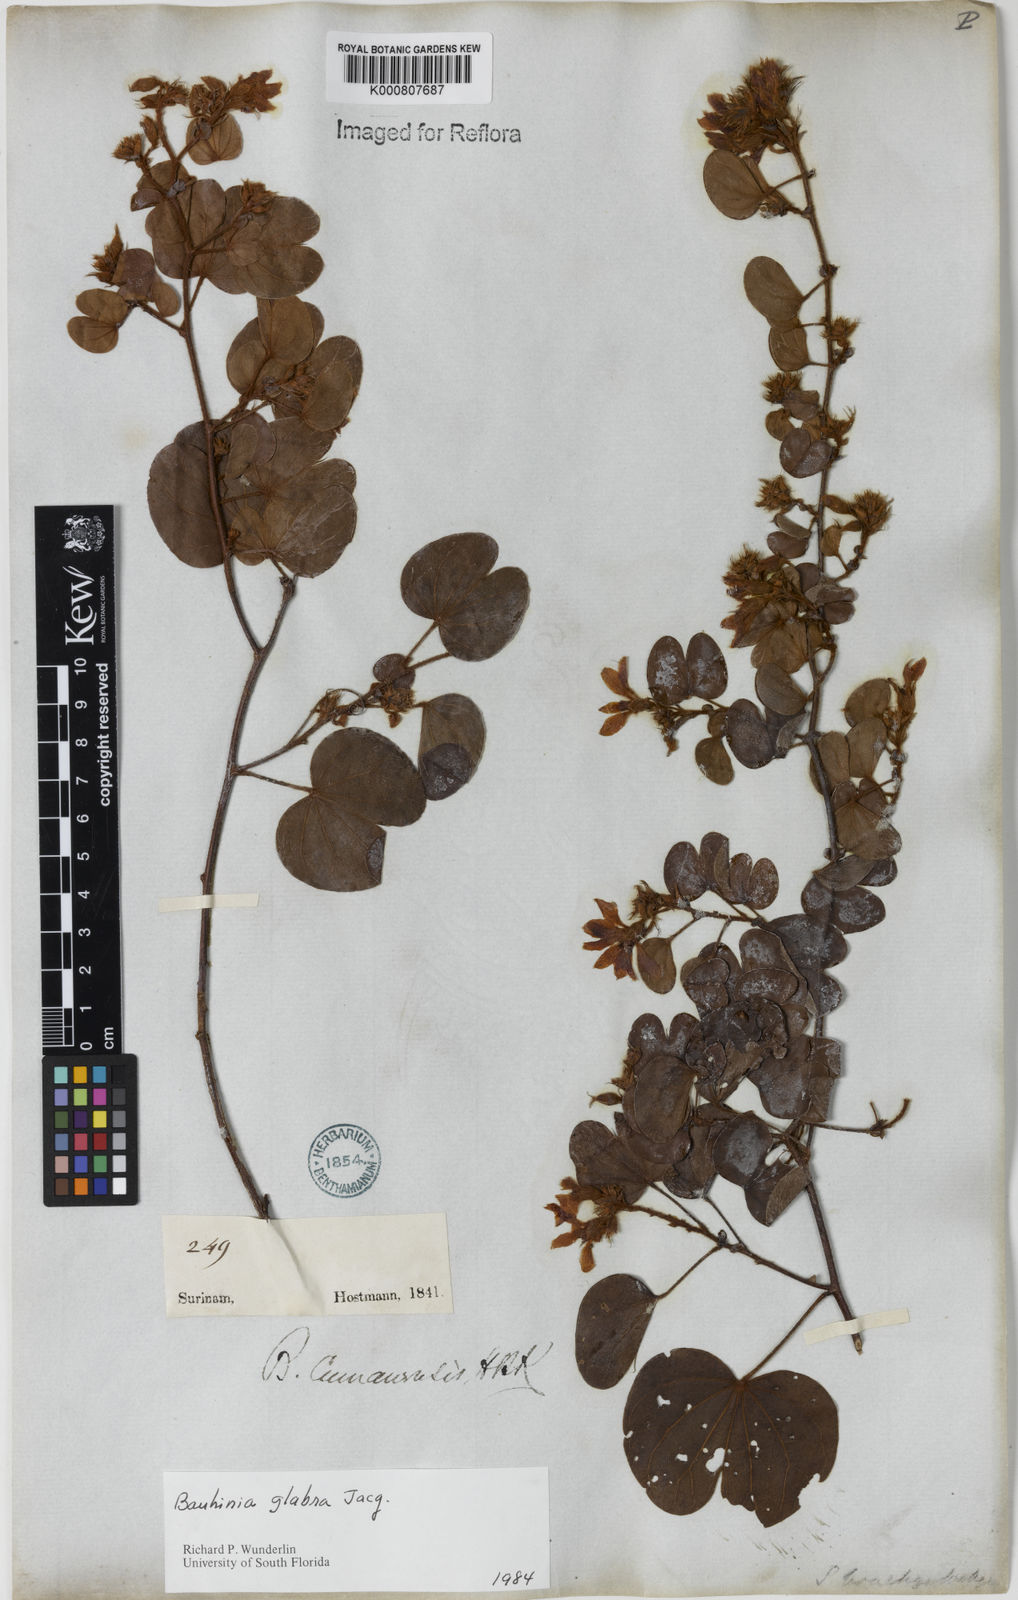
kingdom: Plantae
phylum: Tracheophyta
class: Magnoliopsida
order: Fabales
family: Fabaceae
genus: Schnella
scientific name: Schnella glabra
